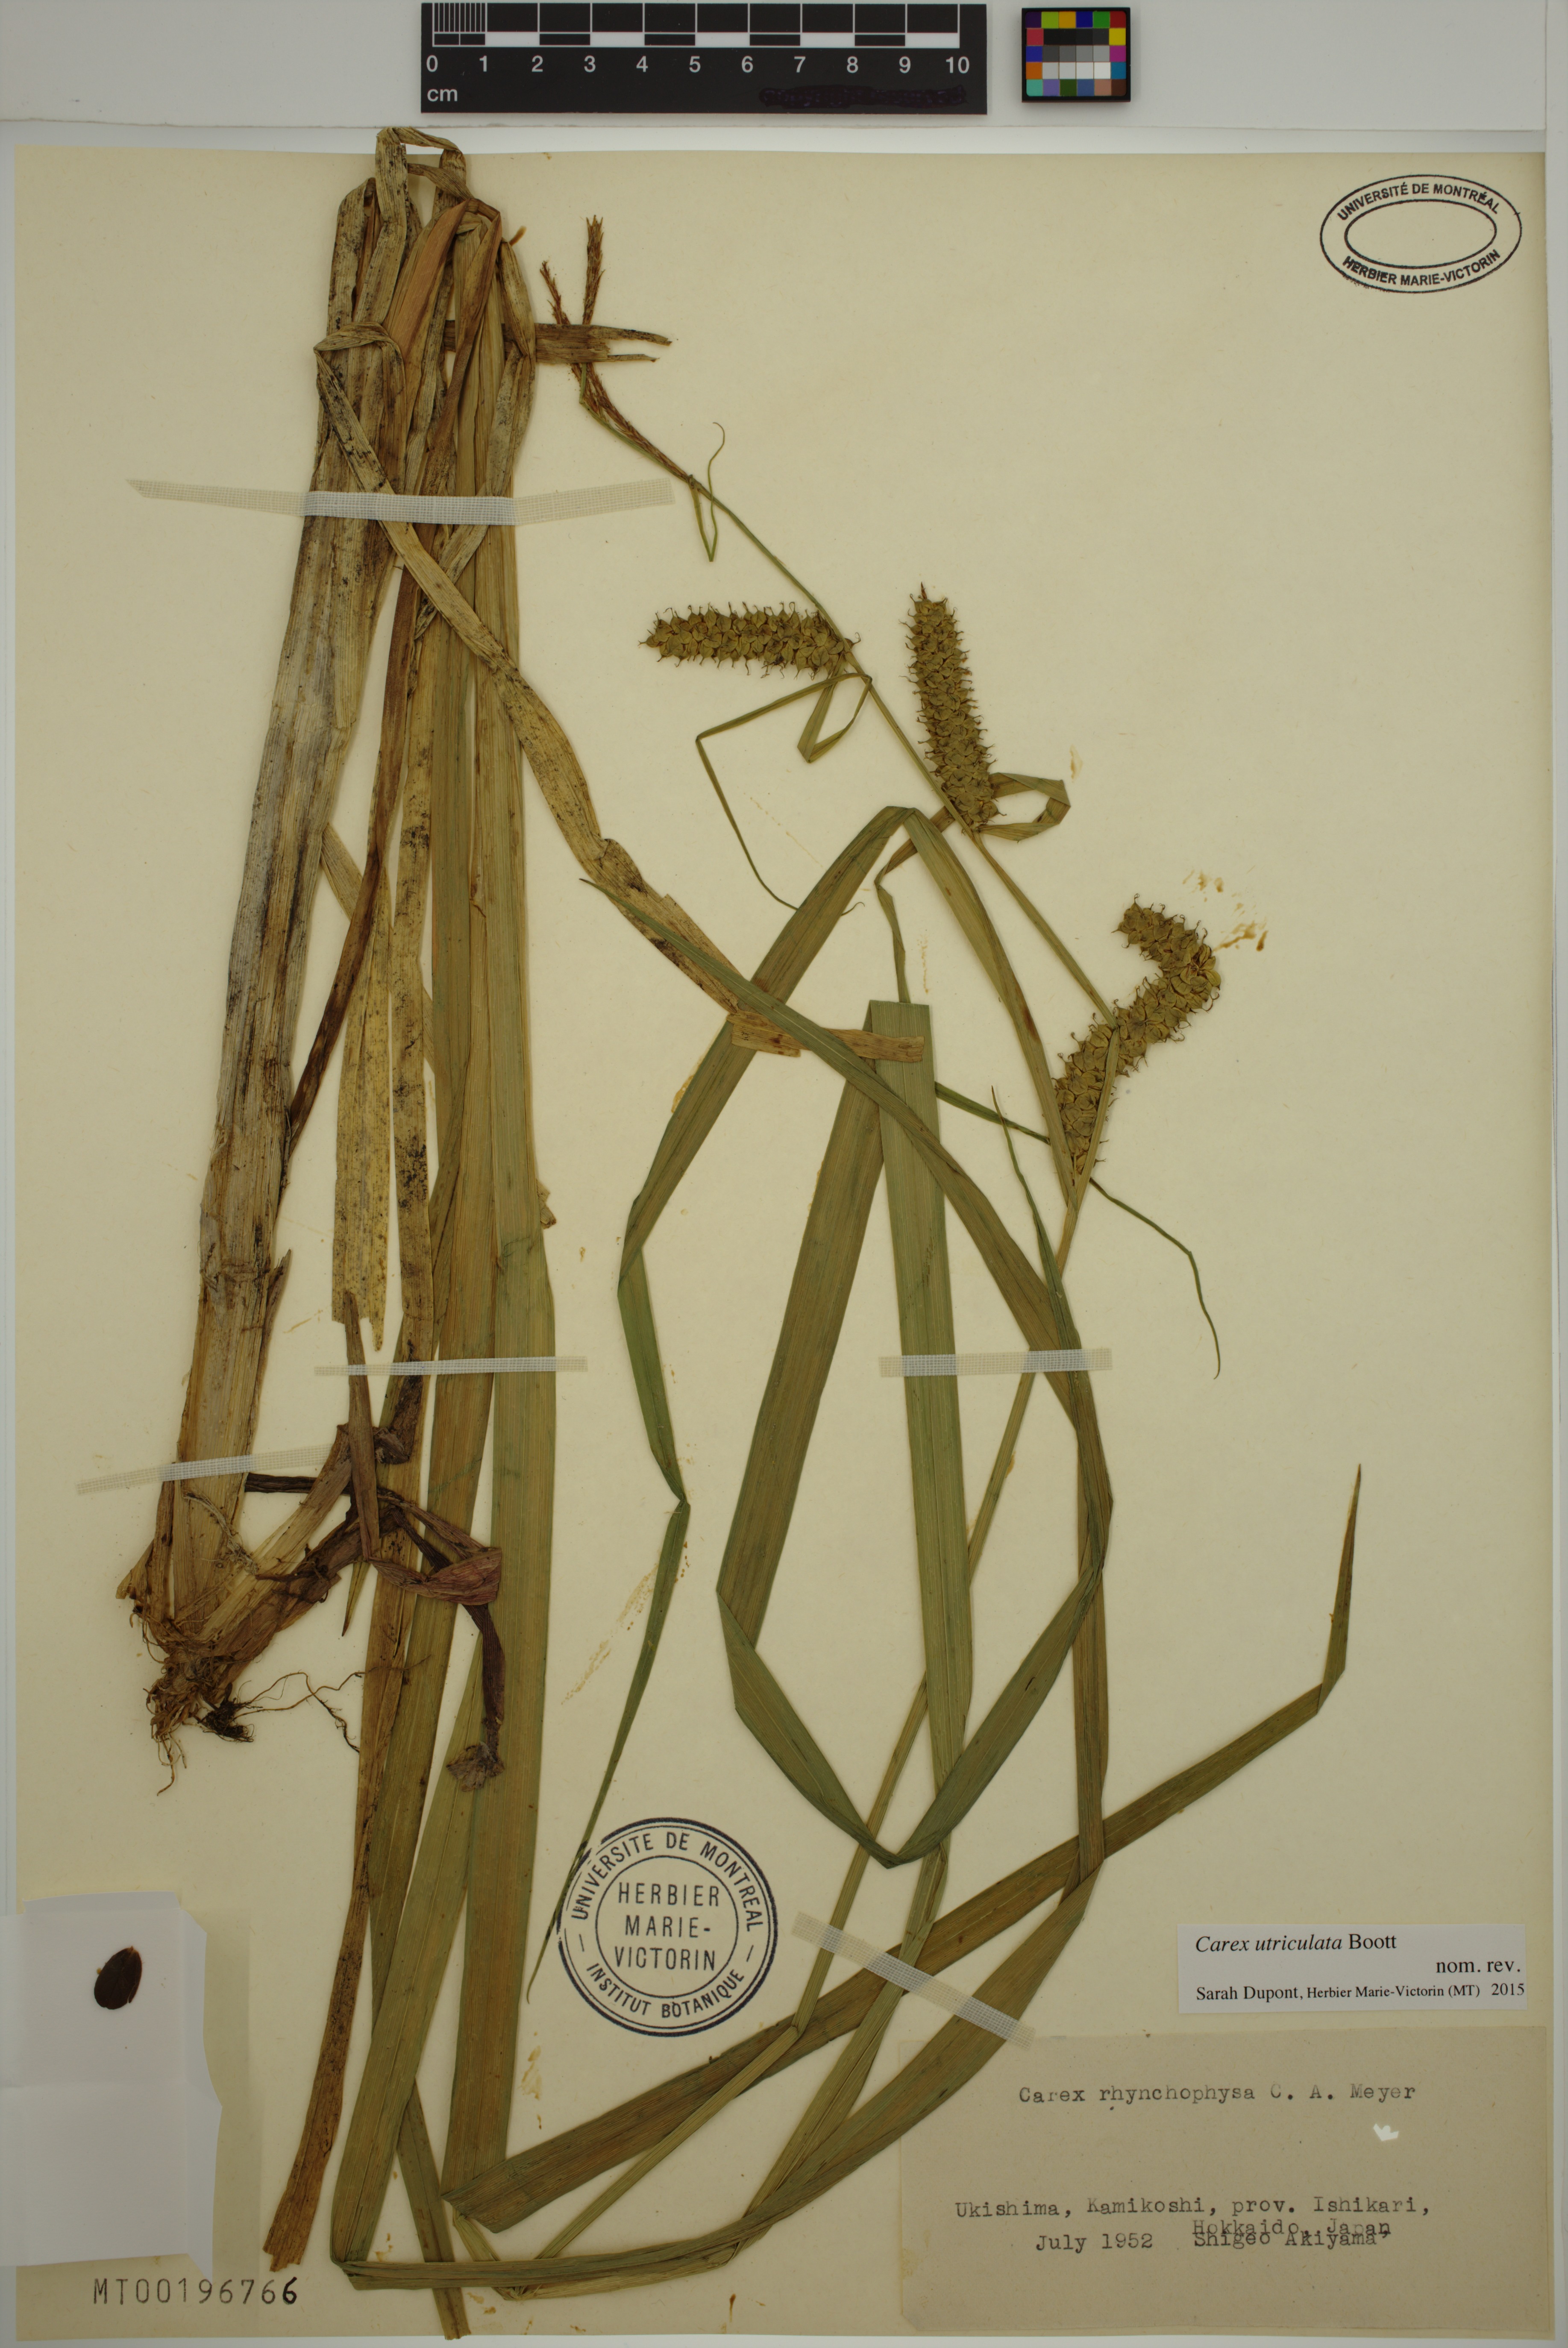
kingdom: Plantae
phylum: Tracheophyta
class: Liliopsida
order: Poales
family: Cyperaceae
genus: Carex
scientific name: Carex utriculata
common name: Beaked sedge
